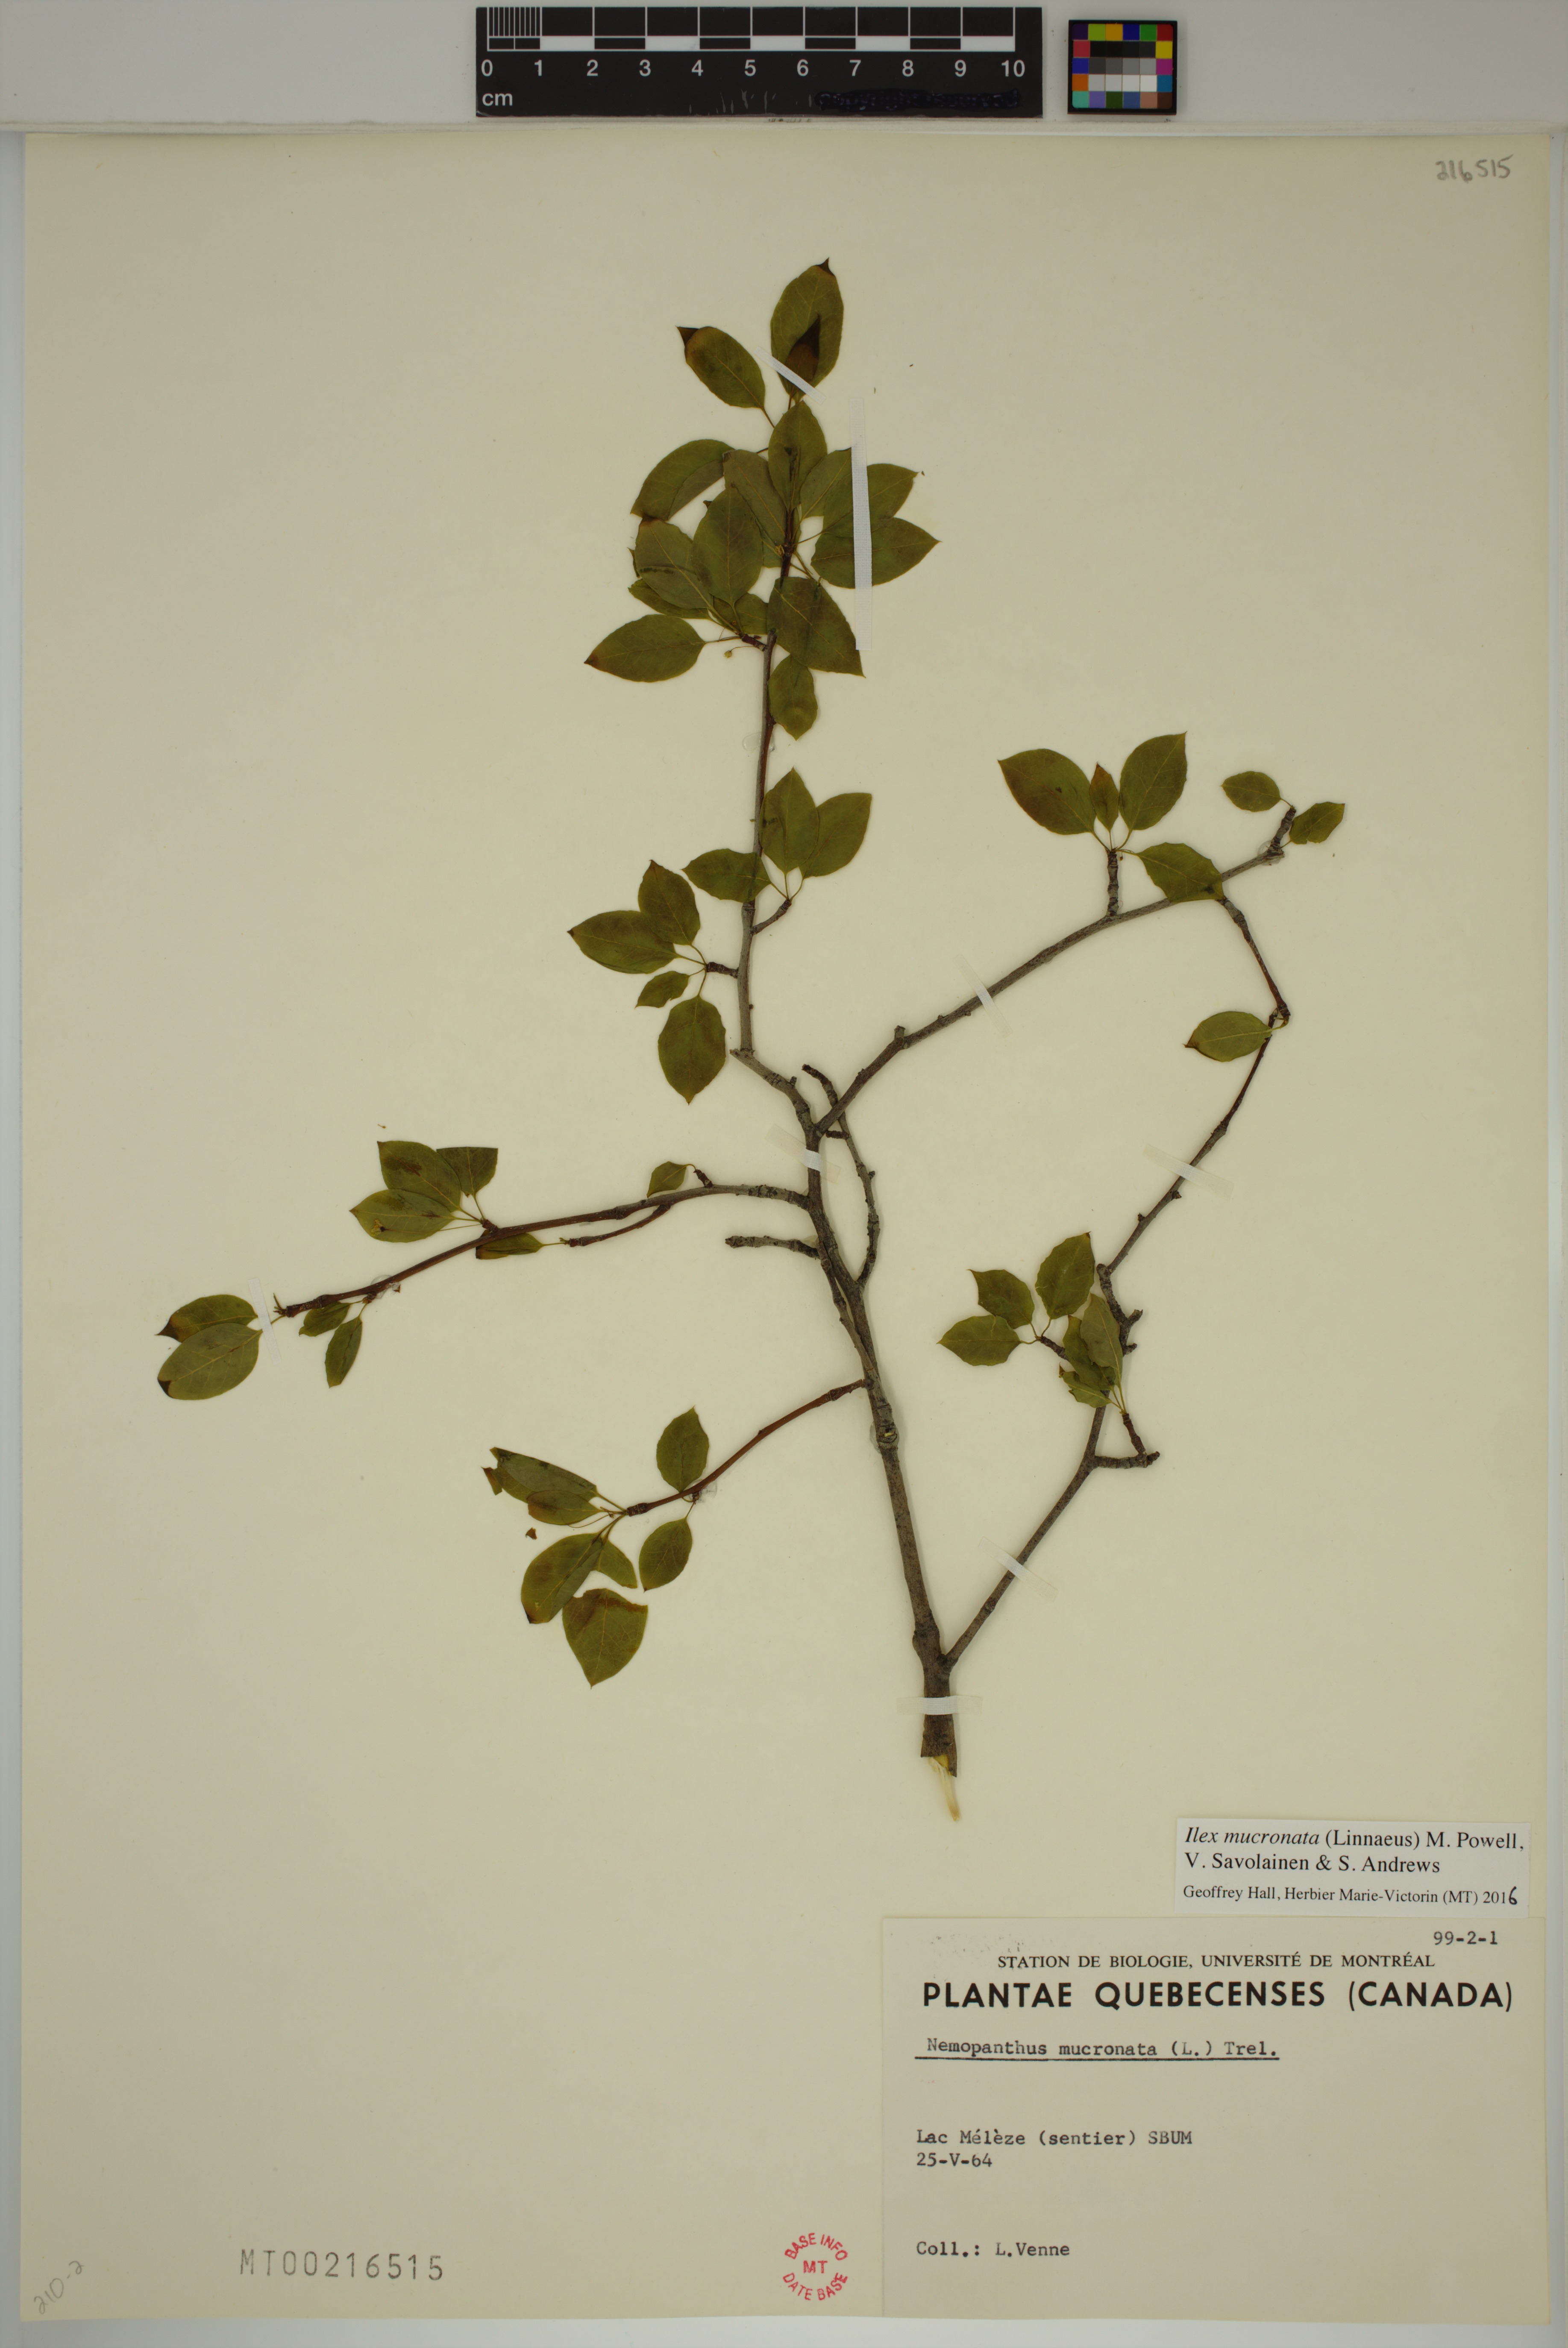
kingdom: Plantae
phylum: Tracheophyta
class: Magnoliopsida
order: Aquifoliales
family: Aquifoliaceae
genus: Ilex
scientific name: Ilex mucronata
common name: Catberry
